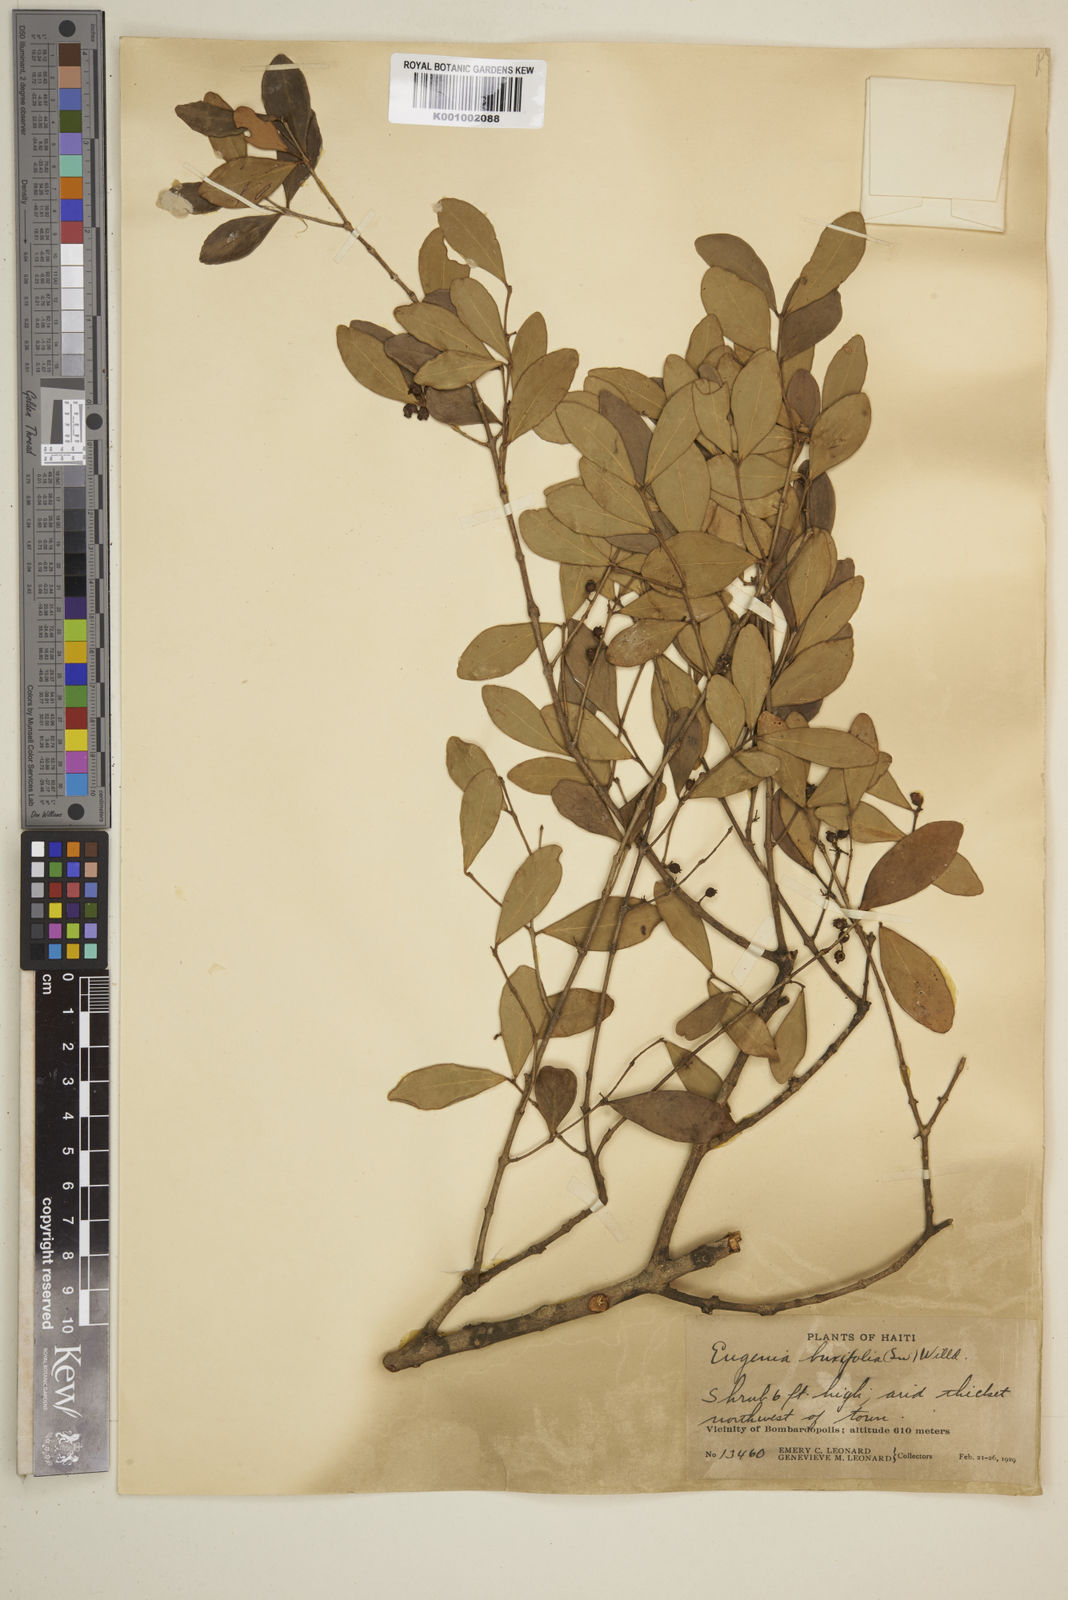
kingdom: Plantae
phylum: Tracheophyta
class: Magnoliopsida
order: Myrtales
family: Myrtaceae
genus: Eugenia
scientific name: Eugenia buxifolia
